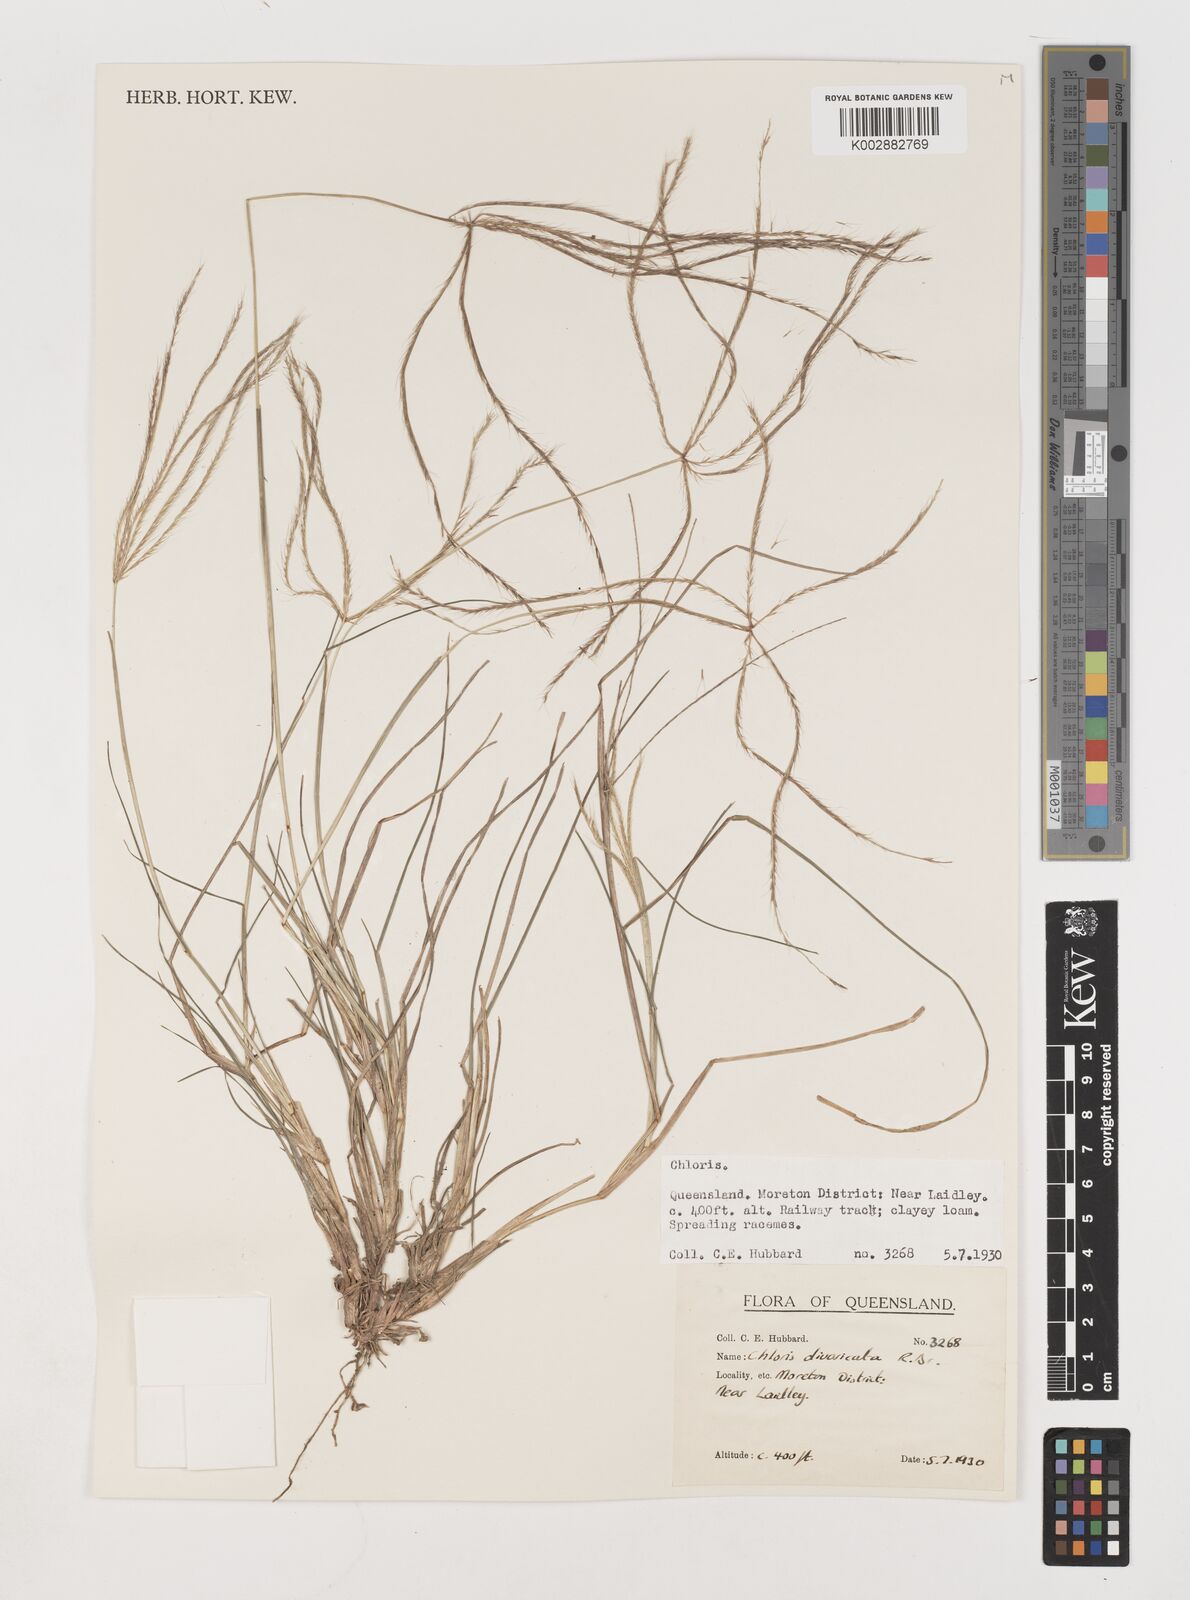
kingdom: Plantae
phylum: Tracheophyta
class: Liliopsida
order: Poales
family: Poaceae
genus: Chloris
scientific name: Chloris divaricata
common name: Spreading windmill grass
